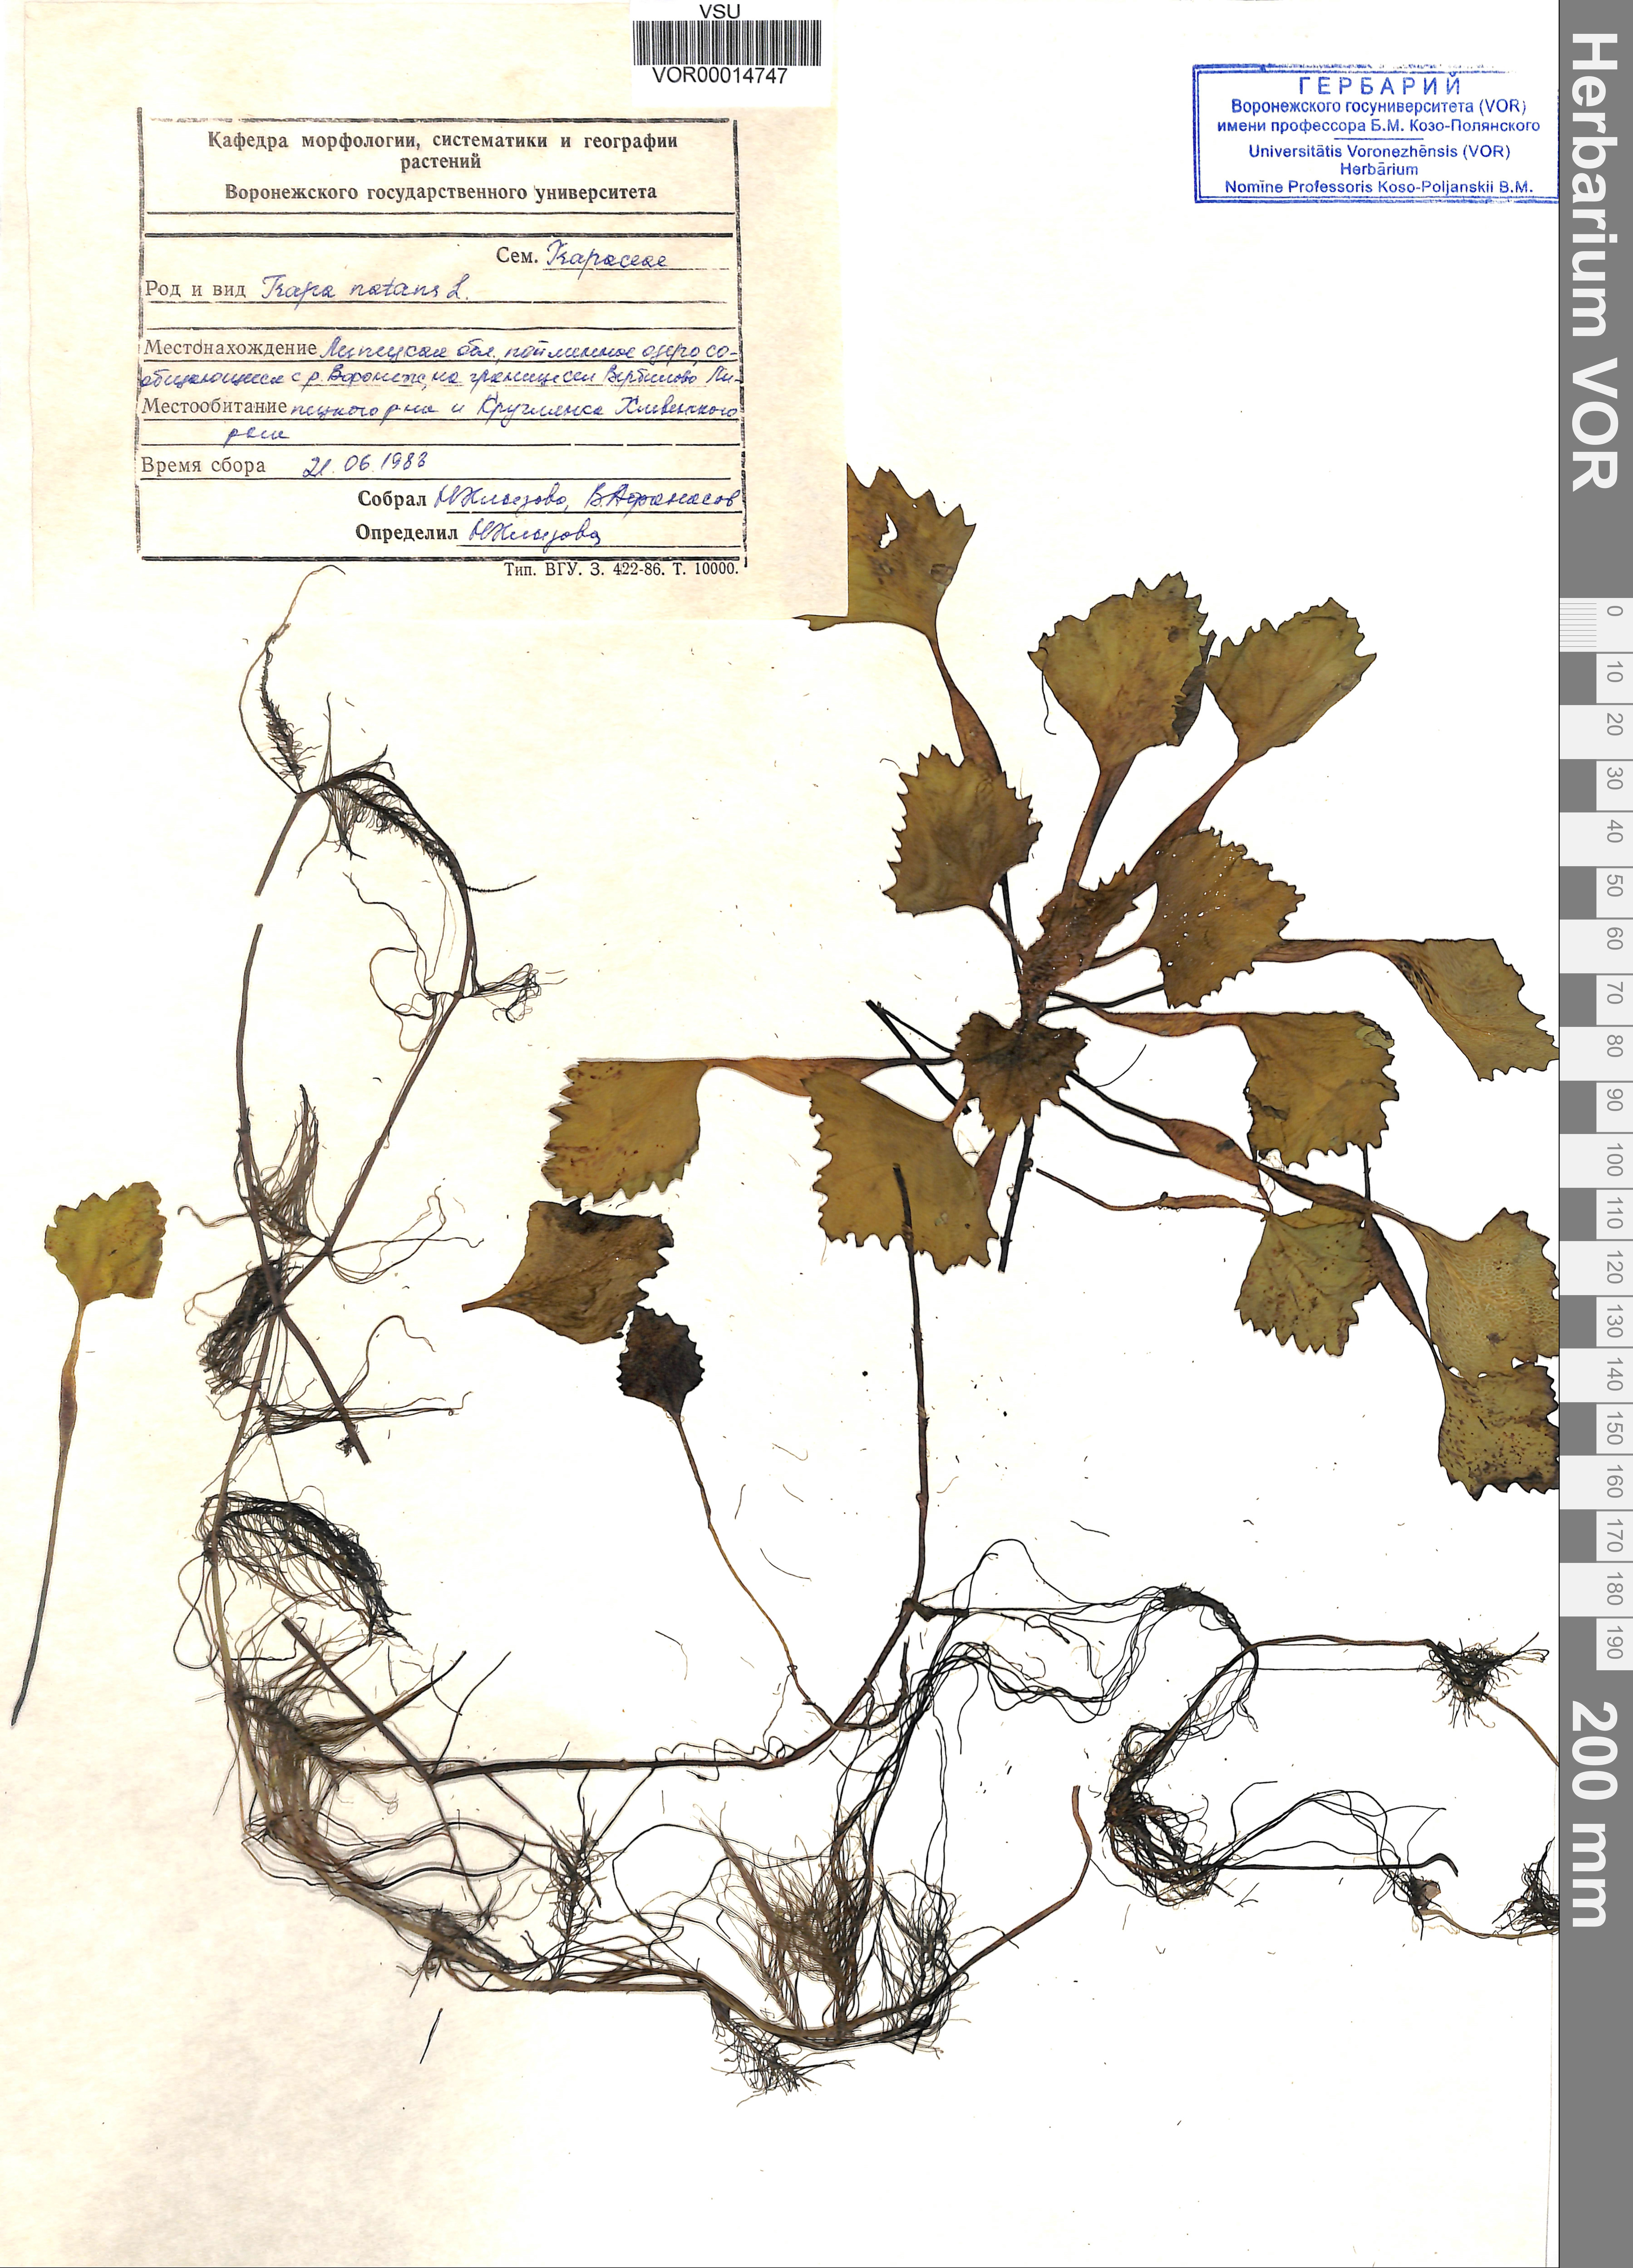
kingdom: Plantae
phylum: Tracheophyta
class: Magnoliopsida
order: Myrtales
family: Lythraceae
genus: Trapa
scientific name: Trapa natans
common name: Water chestnut
